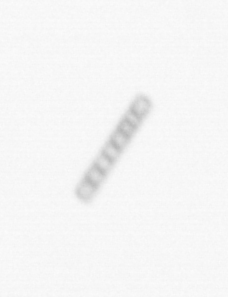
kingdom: Chromista
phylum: Ochrophyta
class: Bacillariophyceae
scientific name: Bacillariophyceae
